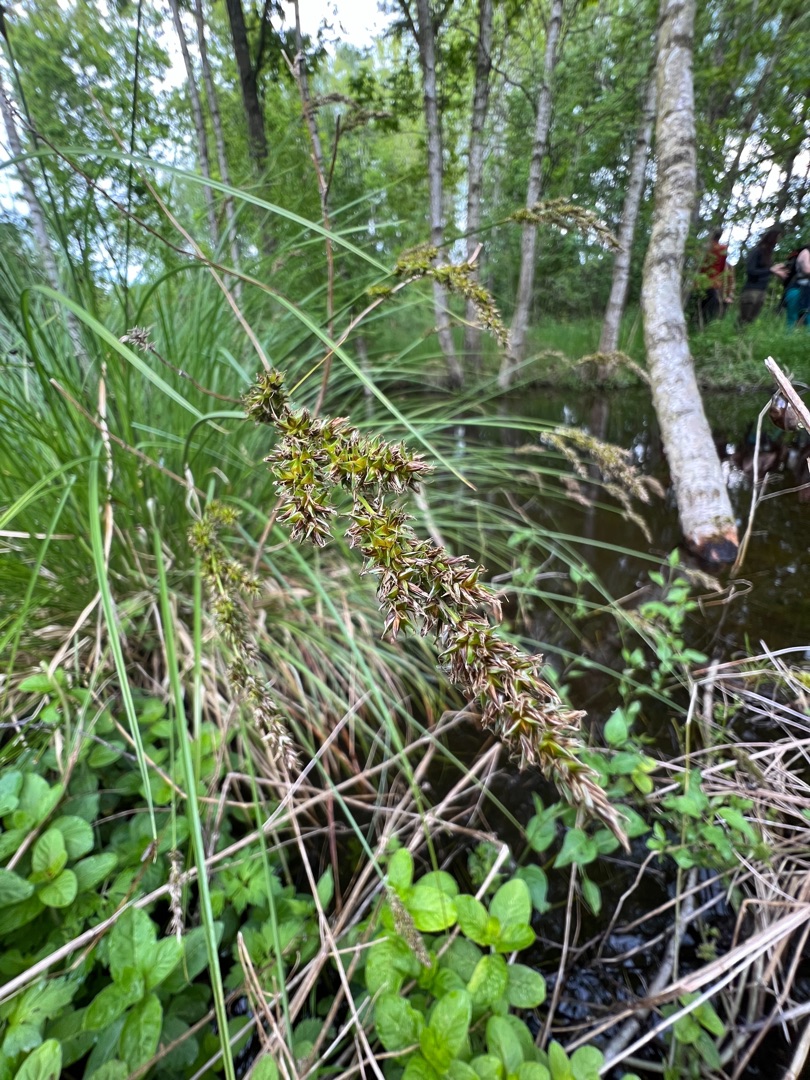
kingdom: Plantae
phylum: Tracheophyta
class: Liliopsida
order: Poales
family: Cyperaceae
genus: Carex
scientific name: Carex paniculata
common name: Top-star
